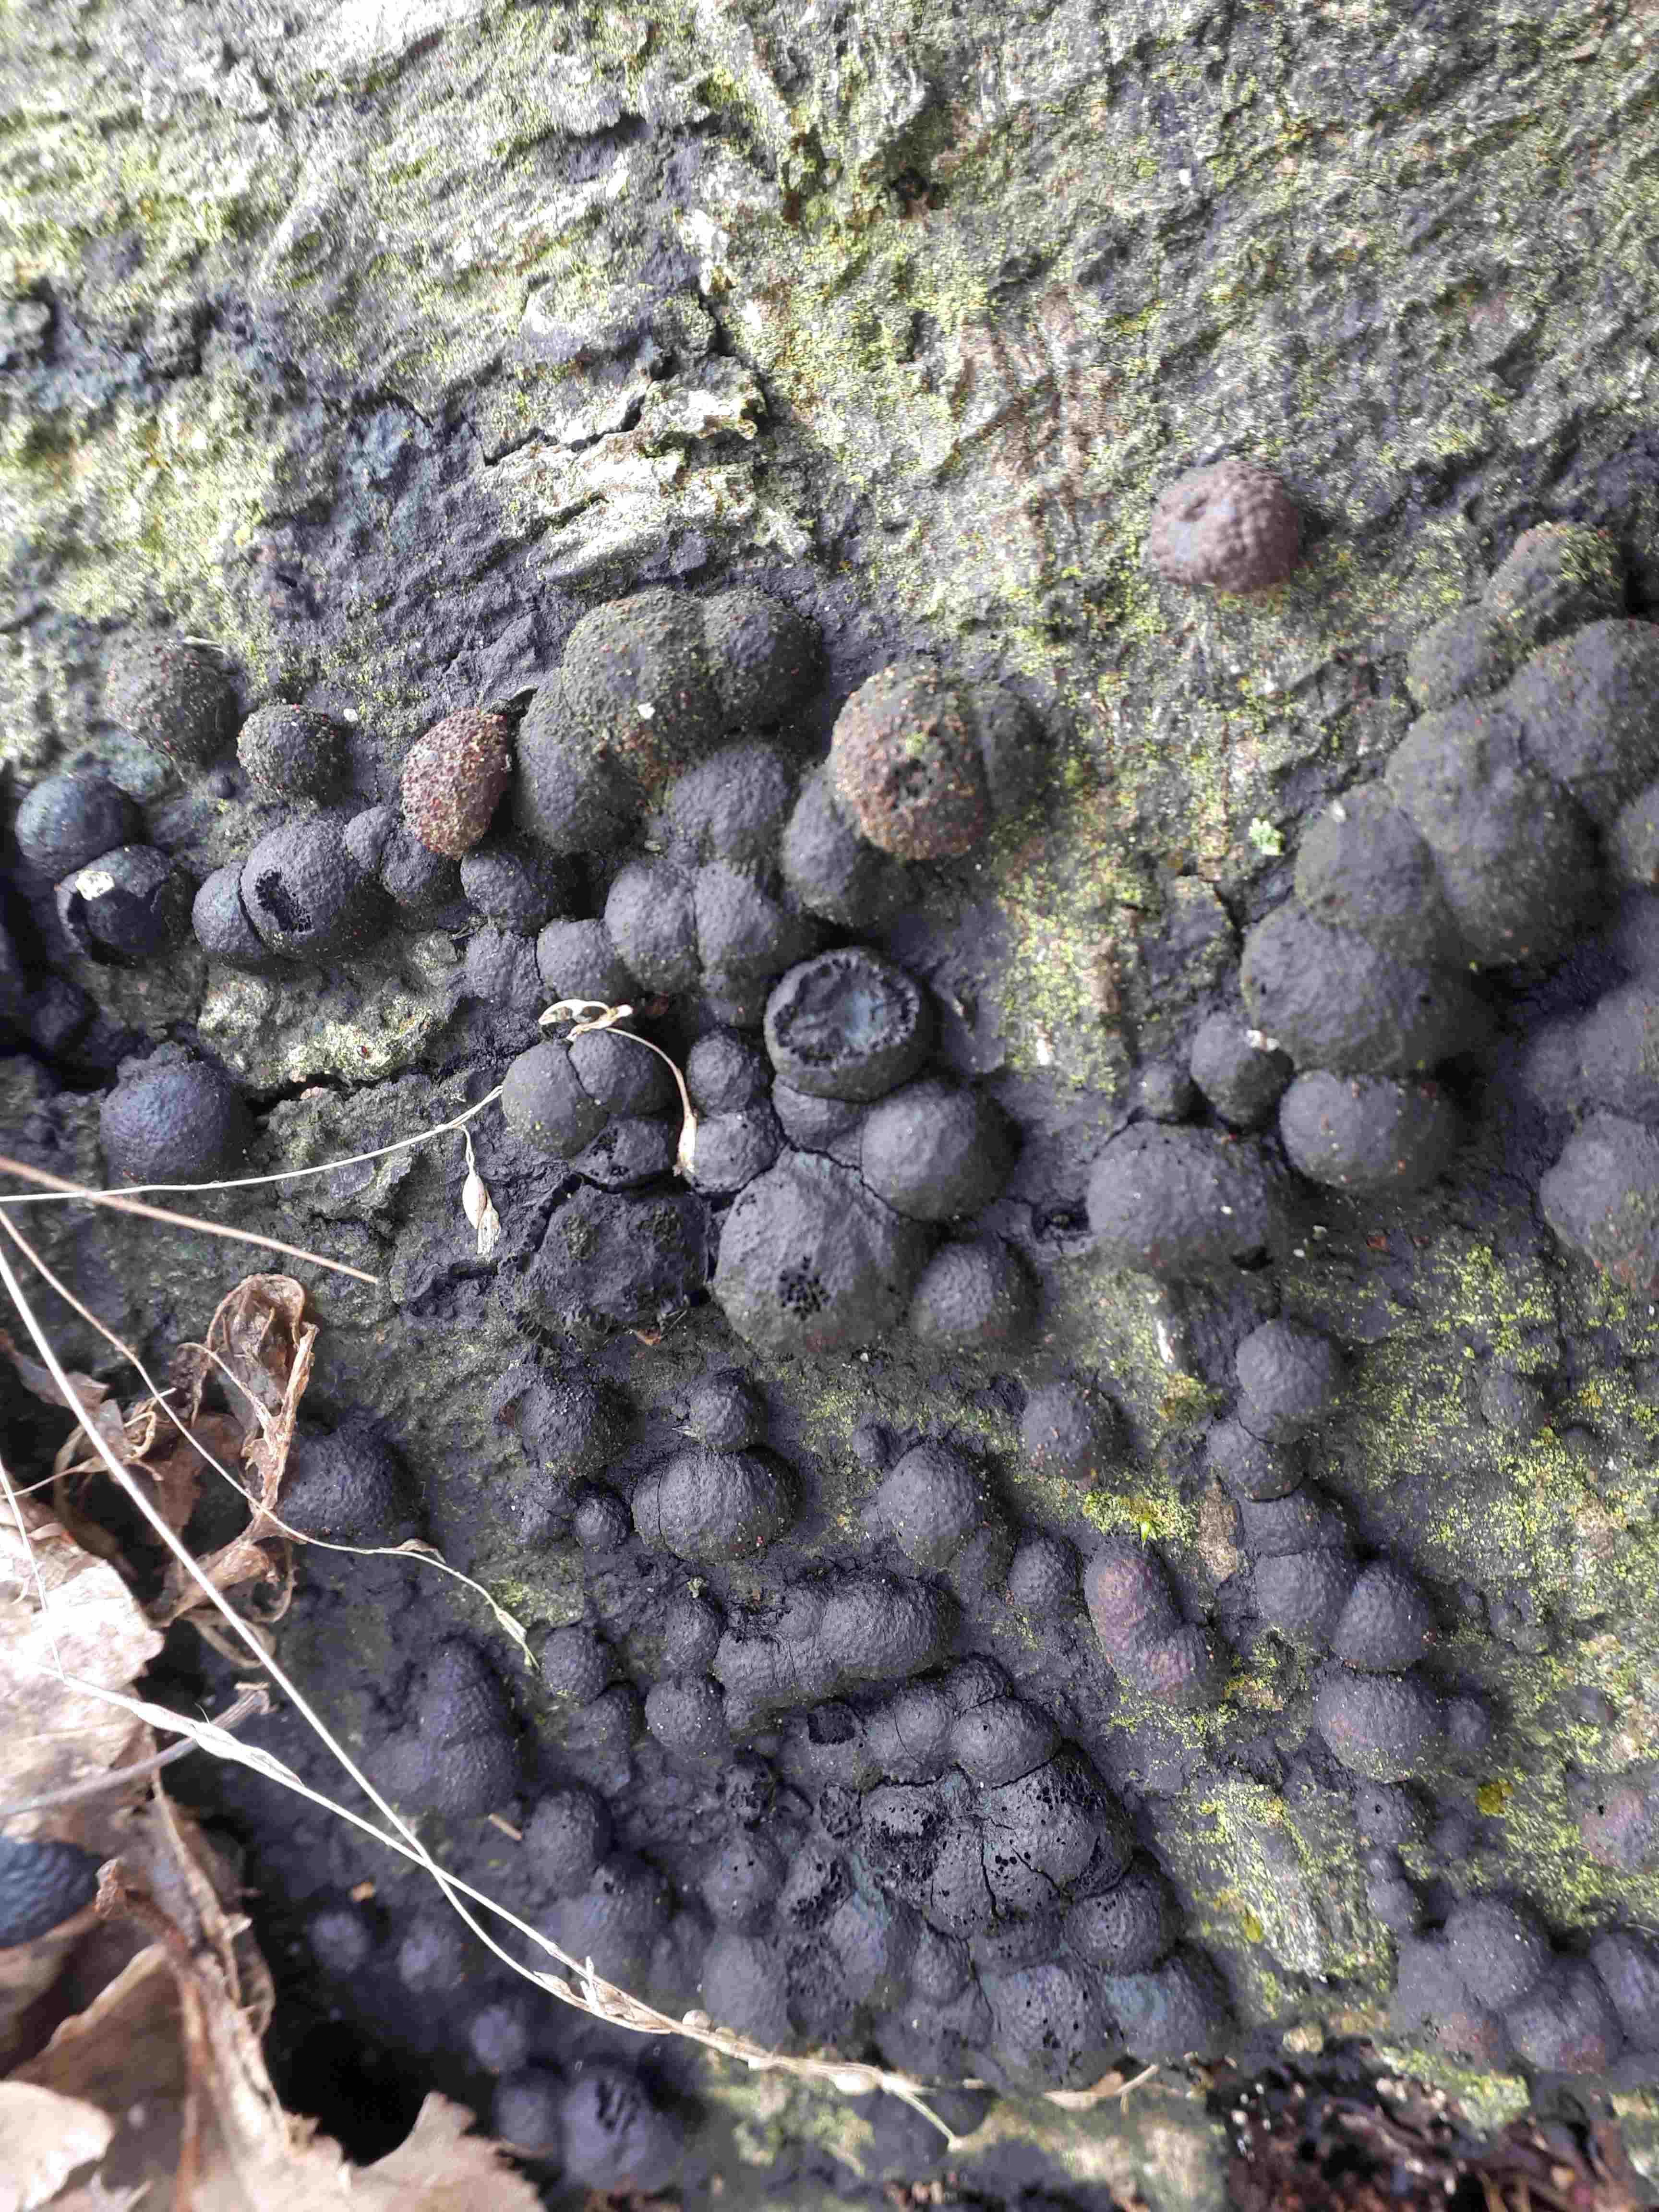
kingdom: Fungi
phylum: Ascomycota
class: Sordariomycetes
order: Xylariales
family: Hypoxylaceae
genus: Hypoxylon
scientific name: Hypoxylon fragiforme
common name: kuljordbær
